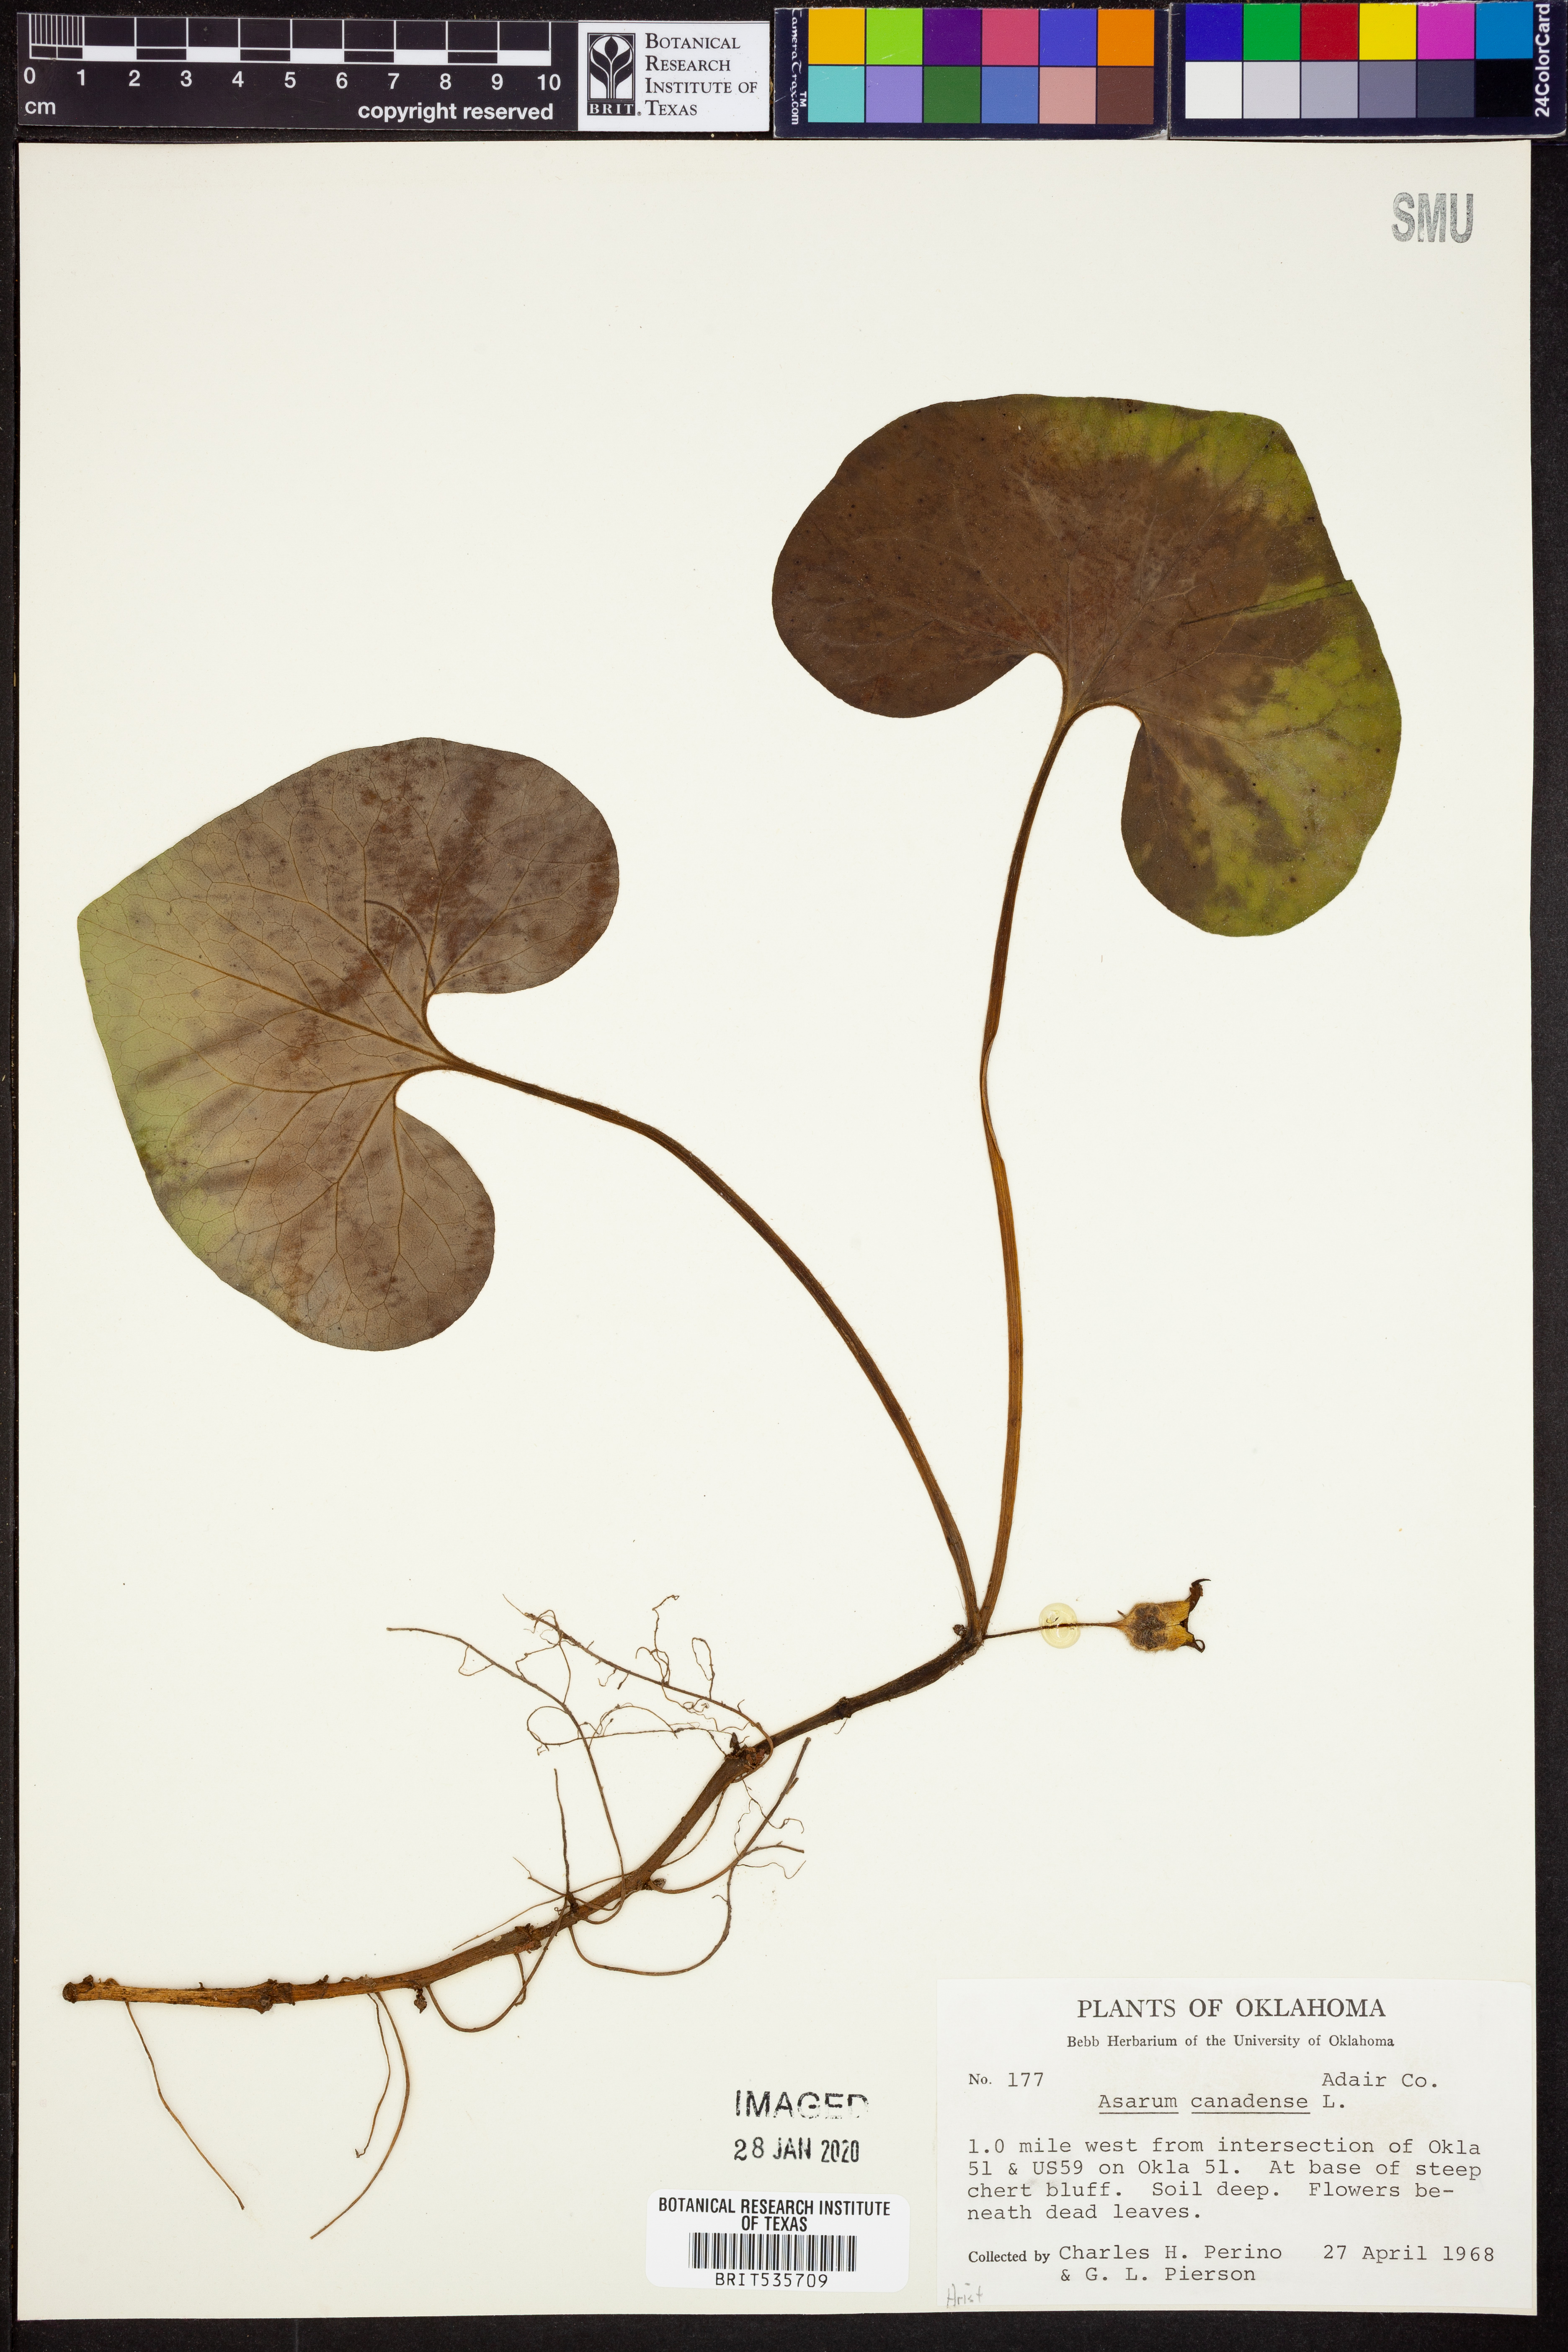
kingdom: Plantae
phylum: Tracheophyta
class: Magnoliopsida
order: Piperales
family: Aristolochiaceae
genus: Asarum
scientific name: Asarum canadense
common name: Wild ginger
